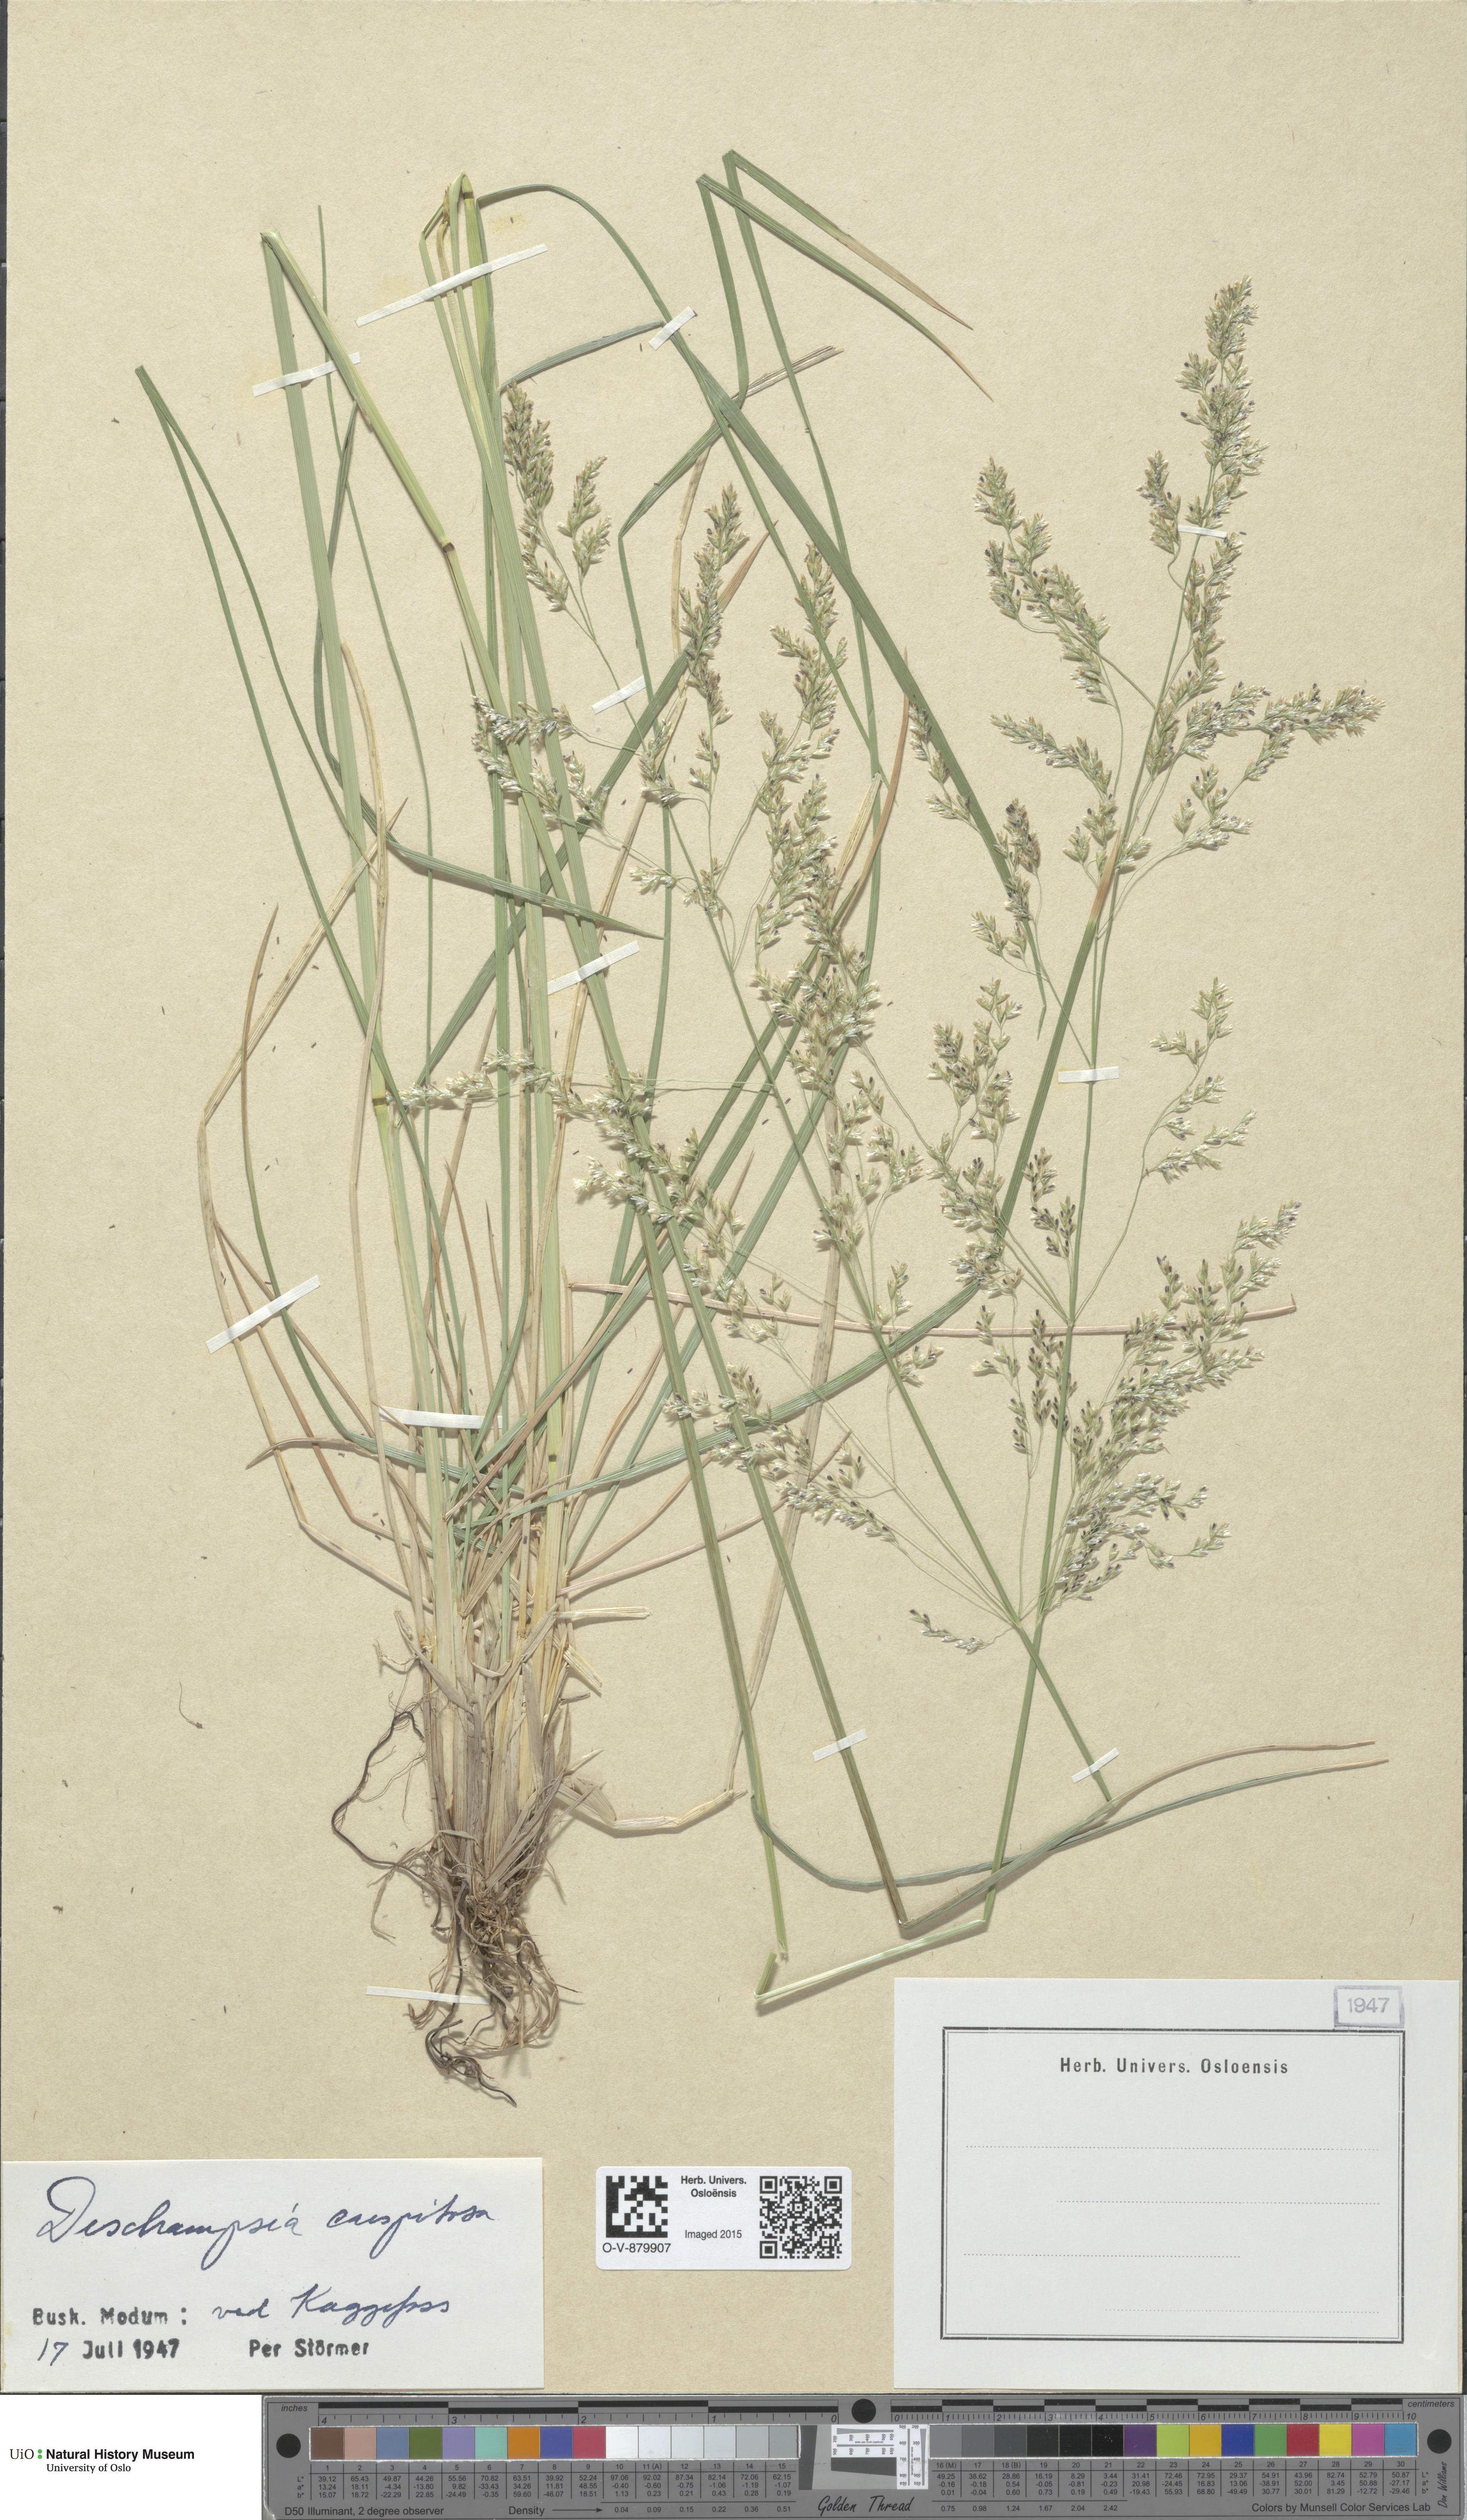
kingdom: Plantae
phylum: Tracheophyta
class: Liliopsida
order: Poales
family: Poaceae
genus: Deschampsia
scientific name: Deschampsia cespitosa
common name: Tufted hair-grass
